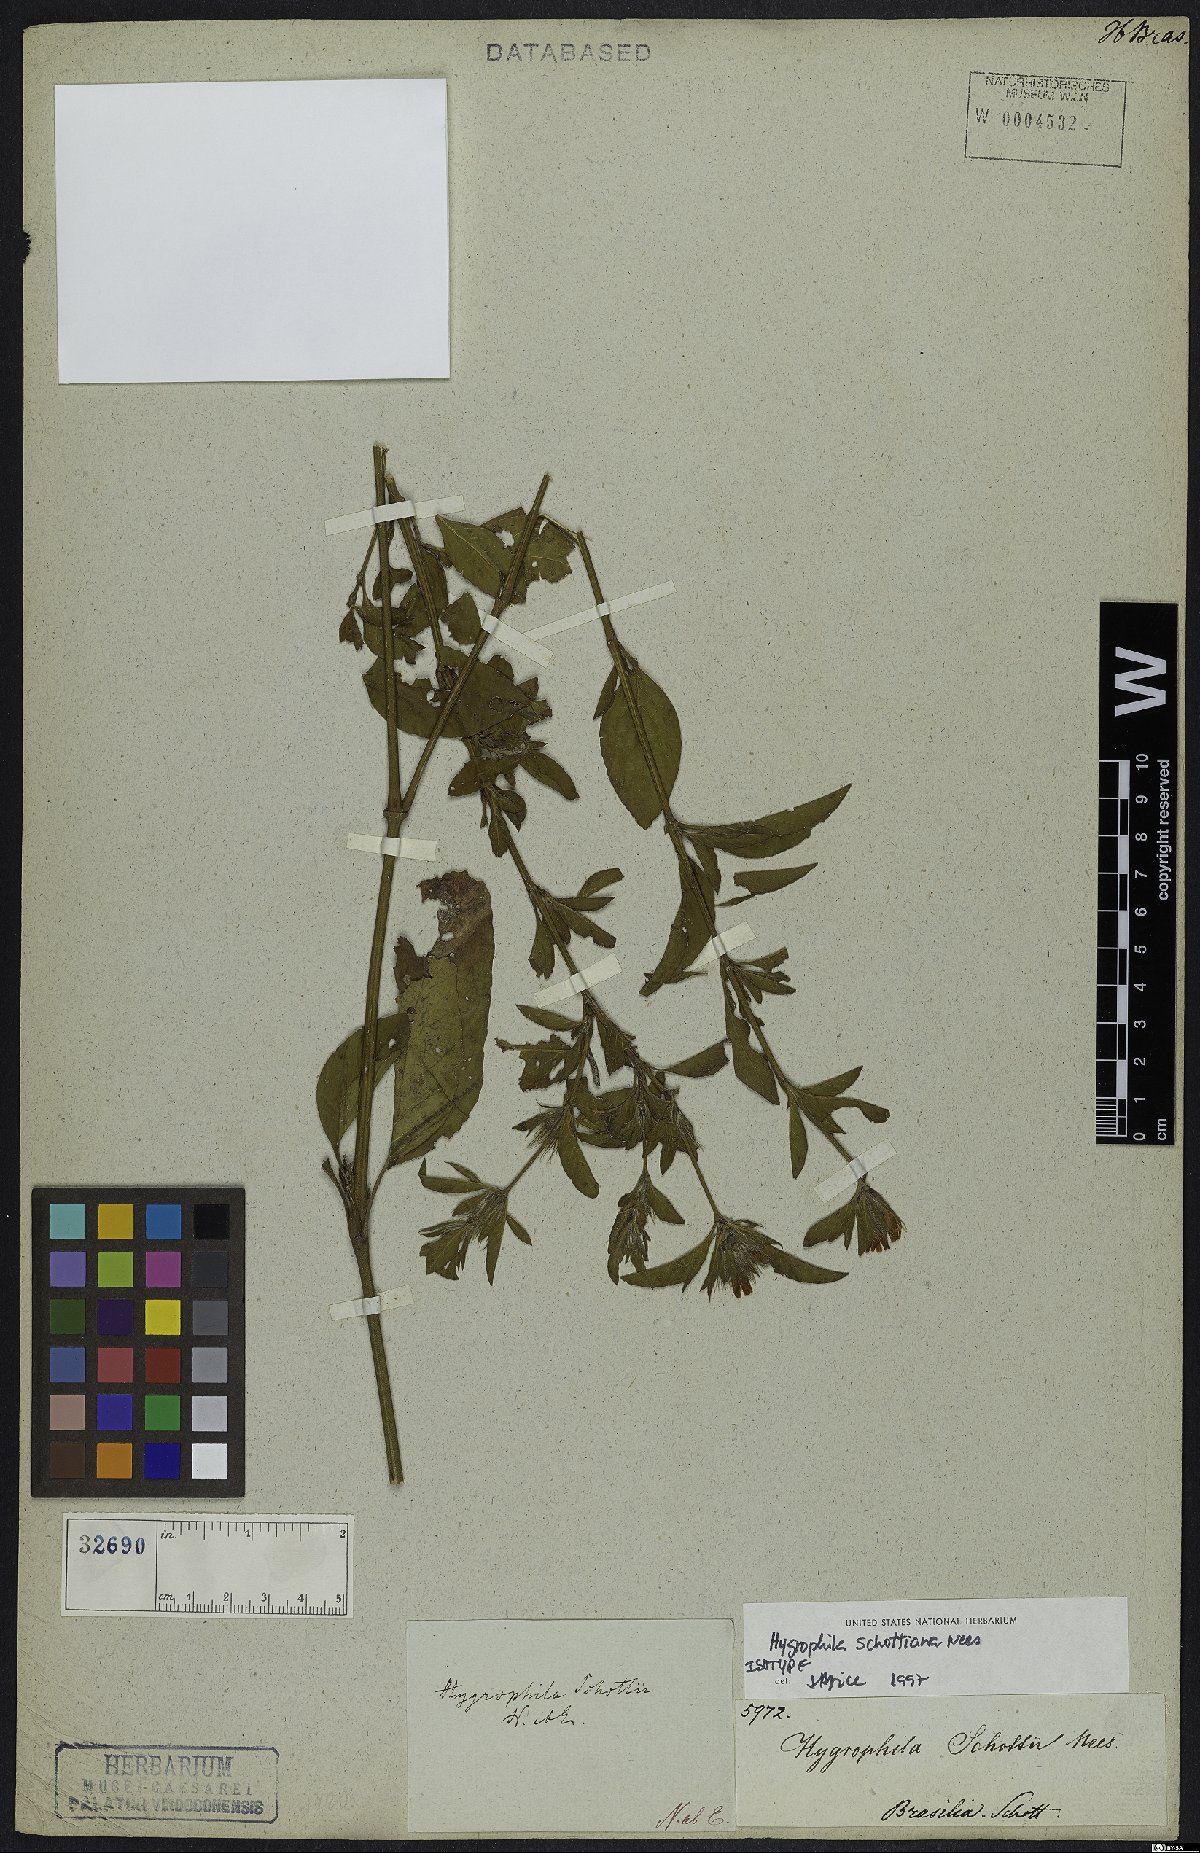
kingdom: Plantae
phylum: Tracheophyta
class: Magnoliopsida
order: Lamiales
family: Acanthaceae
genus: Dyschoriste
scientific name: Dyschoriste schottiana
